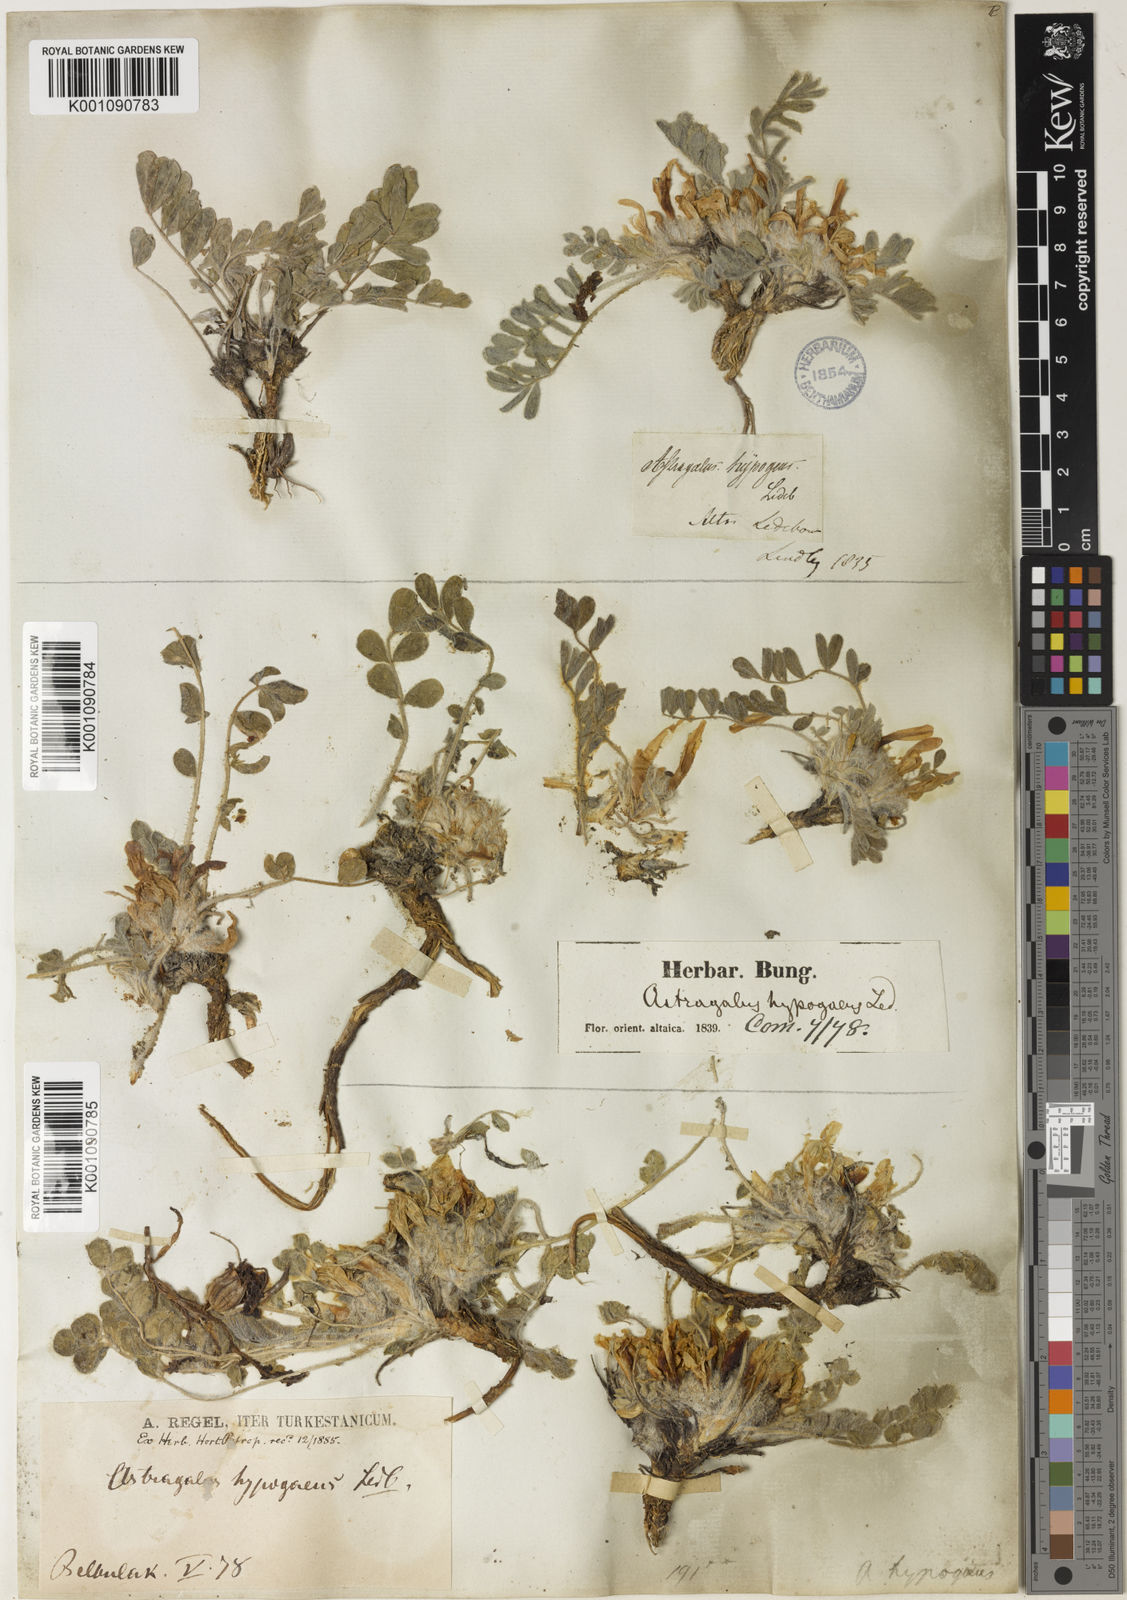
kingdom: Plantae
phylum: Tracheophyta
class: Magnoliopsida
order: Fabales
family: Fabaceae
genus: Astragalus
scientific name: Astragalus
